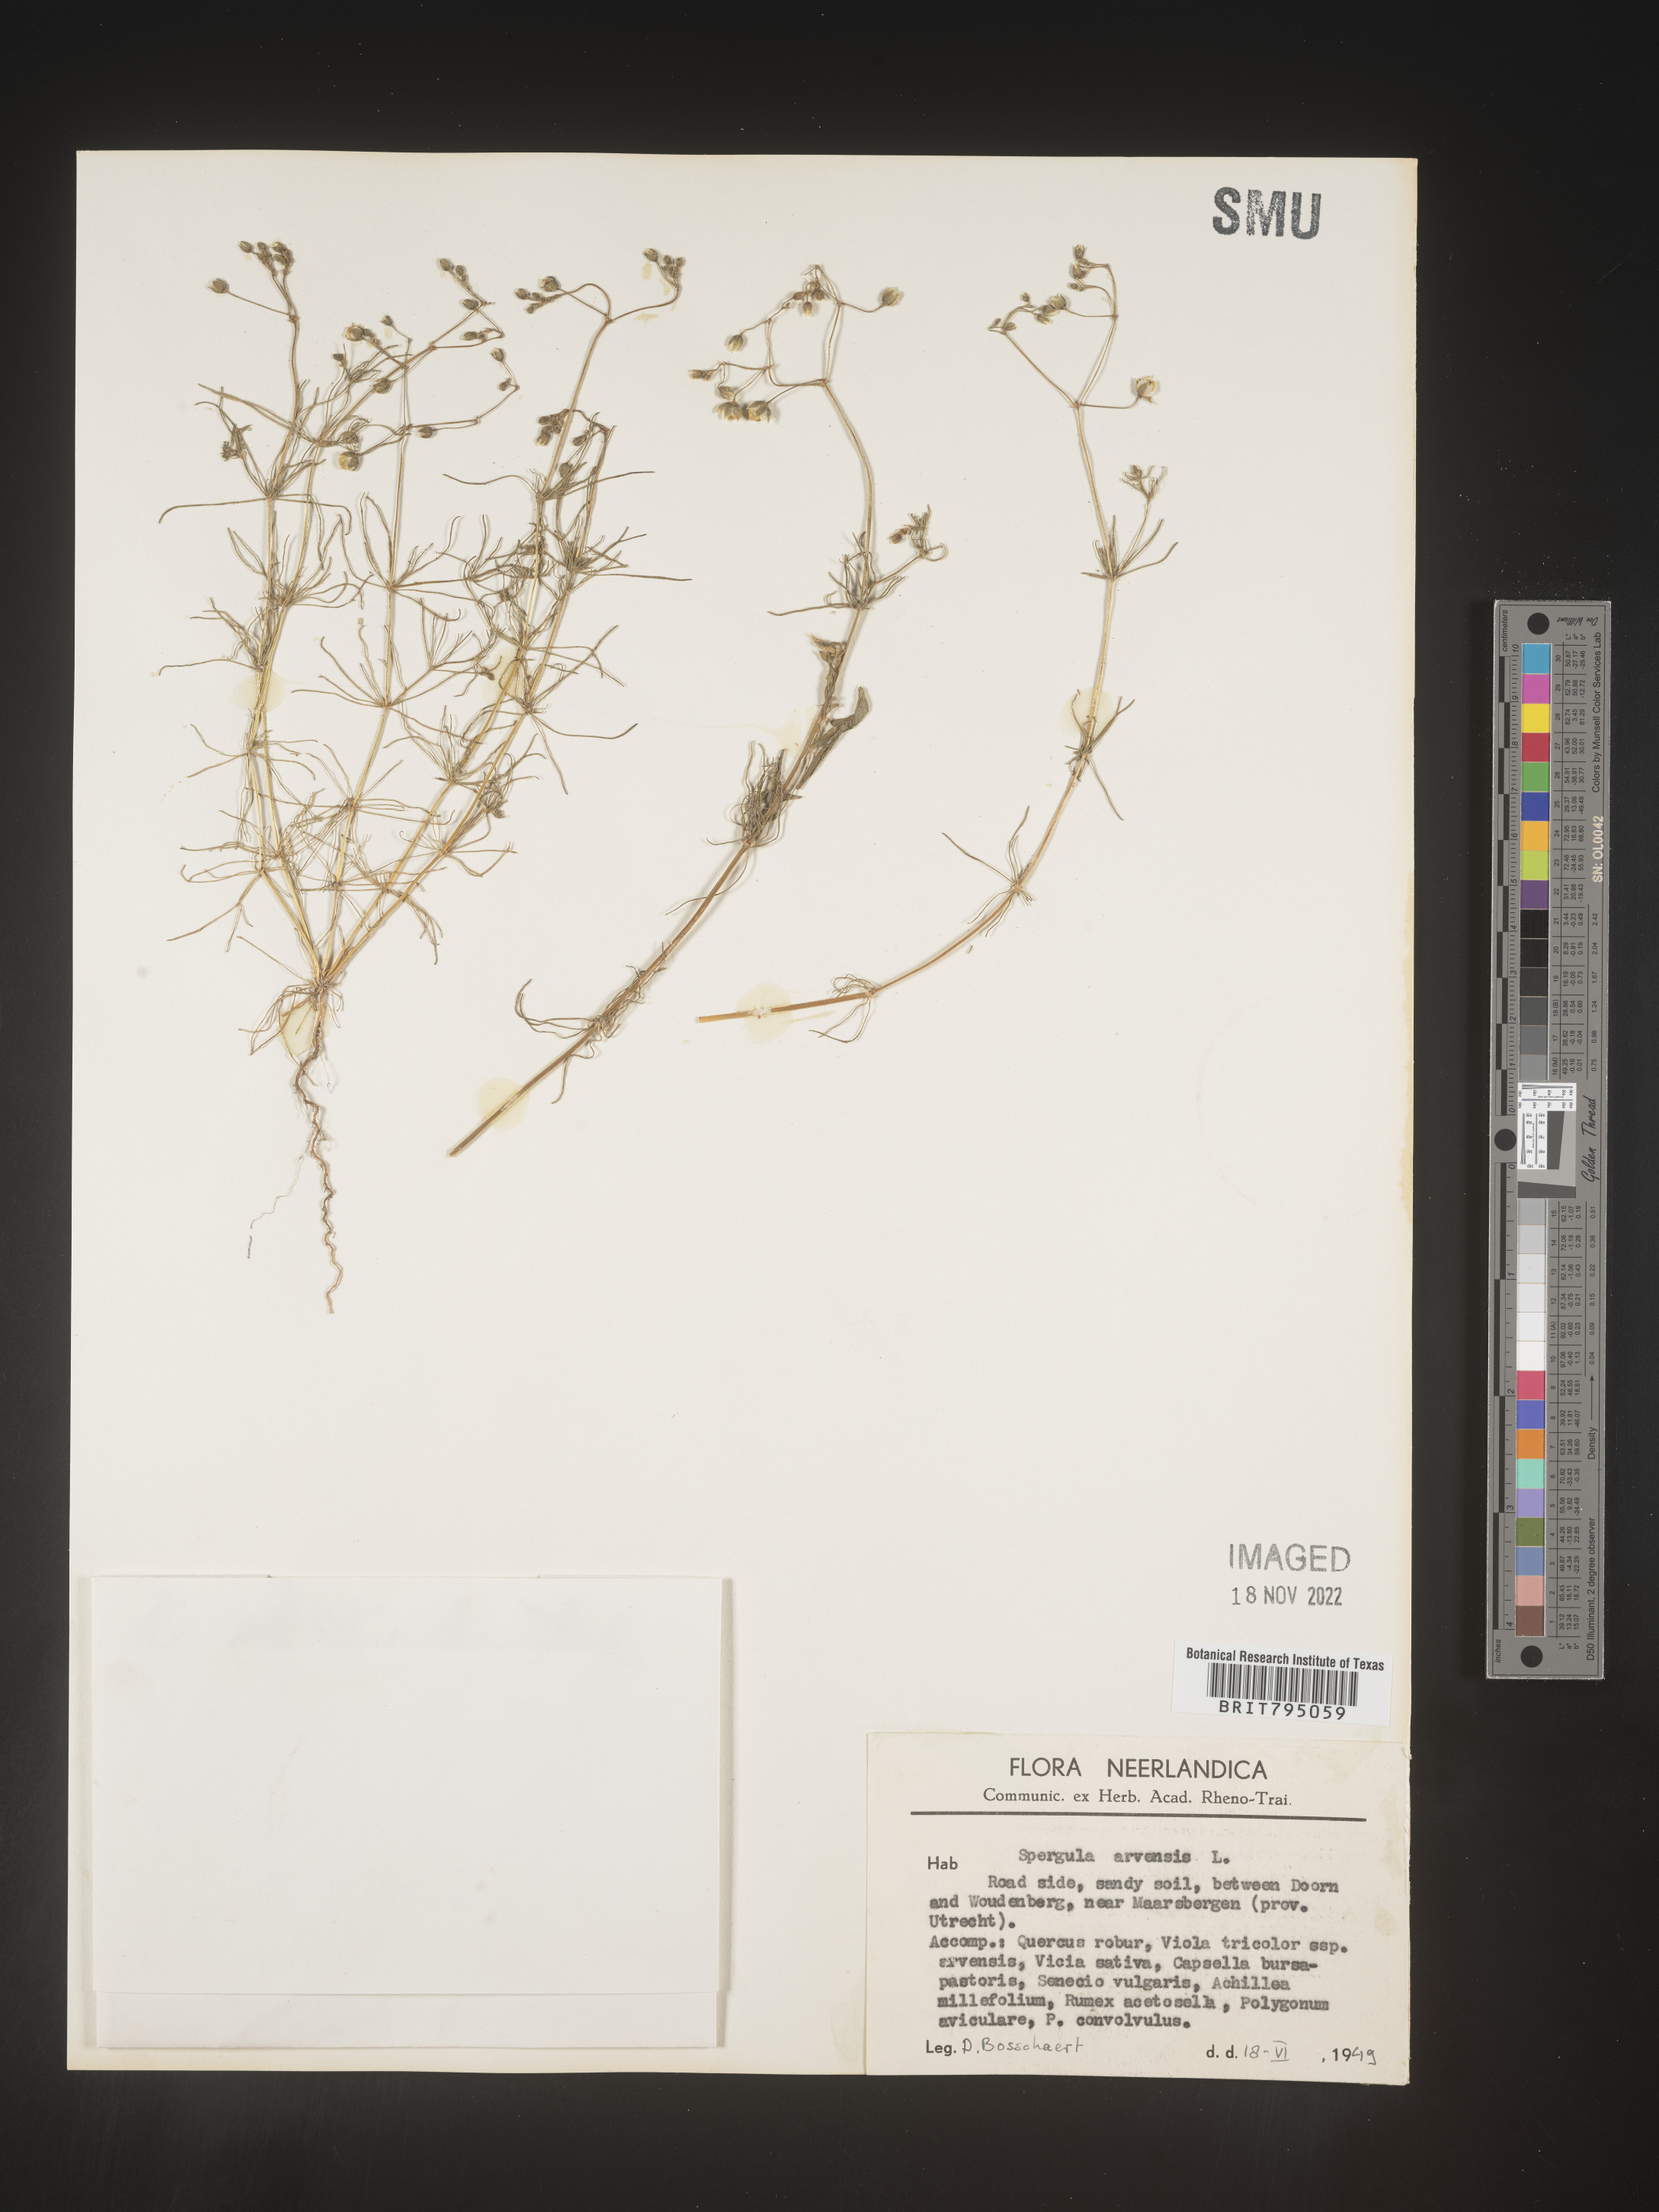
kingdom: Plantae
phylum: Tracheophyta
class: Magnoliopsida
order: Caryophyllales
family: Caryophyllaceae
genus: Spergula
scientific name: Spergula arvensis
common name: Corn spurrey
